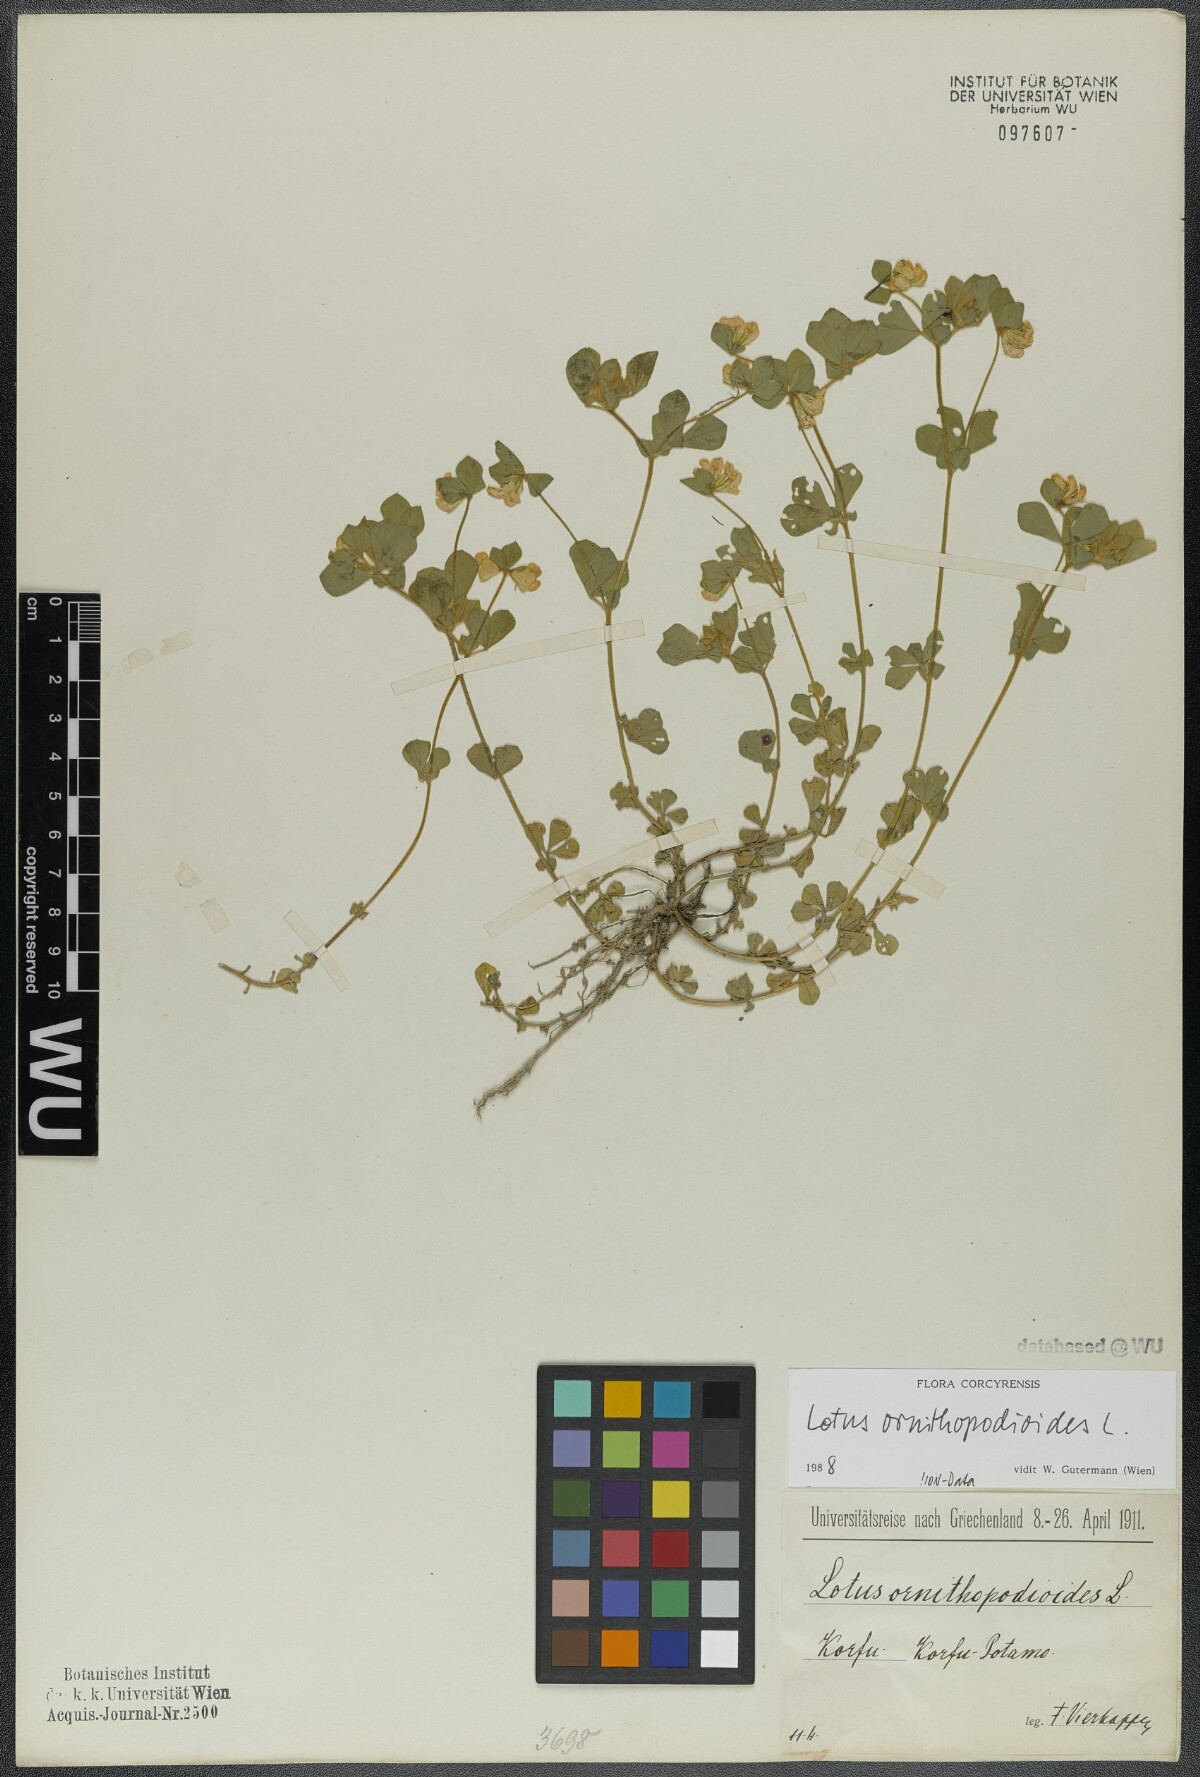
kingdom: Plantae
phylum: Tracheophyta
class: Magnoliopsida
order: Fabales
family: Fabaceae
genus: Lotus
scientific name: Lotus ornithopodioides
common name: Southern bird's-foot trefoil
